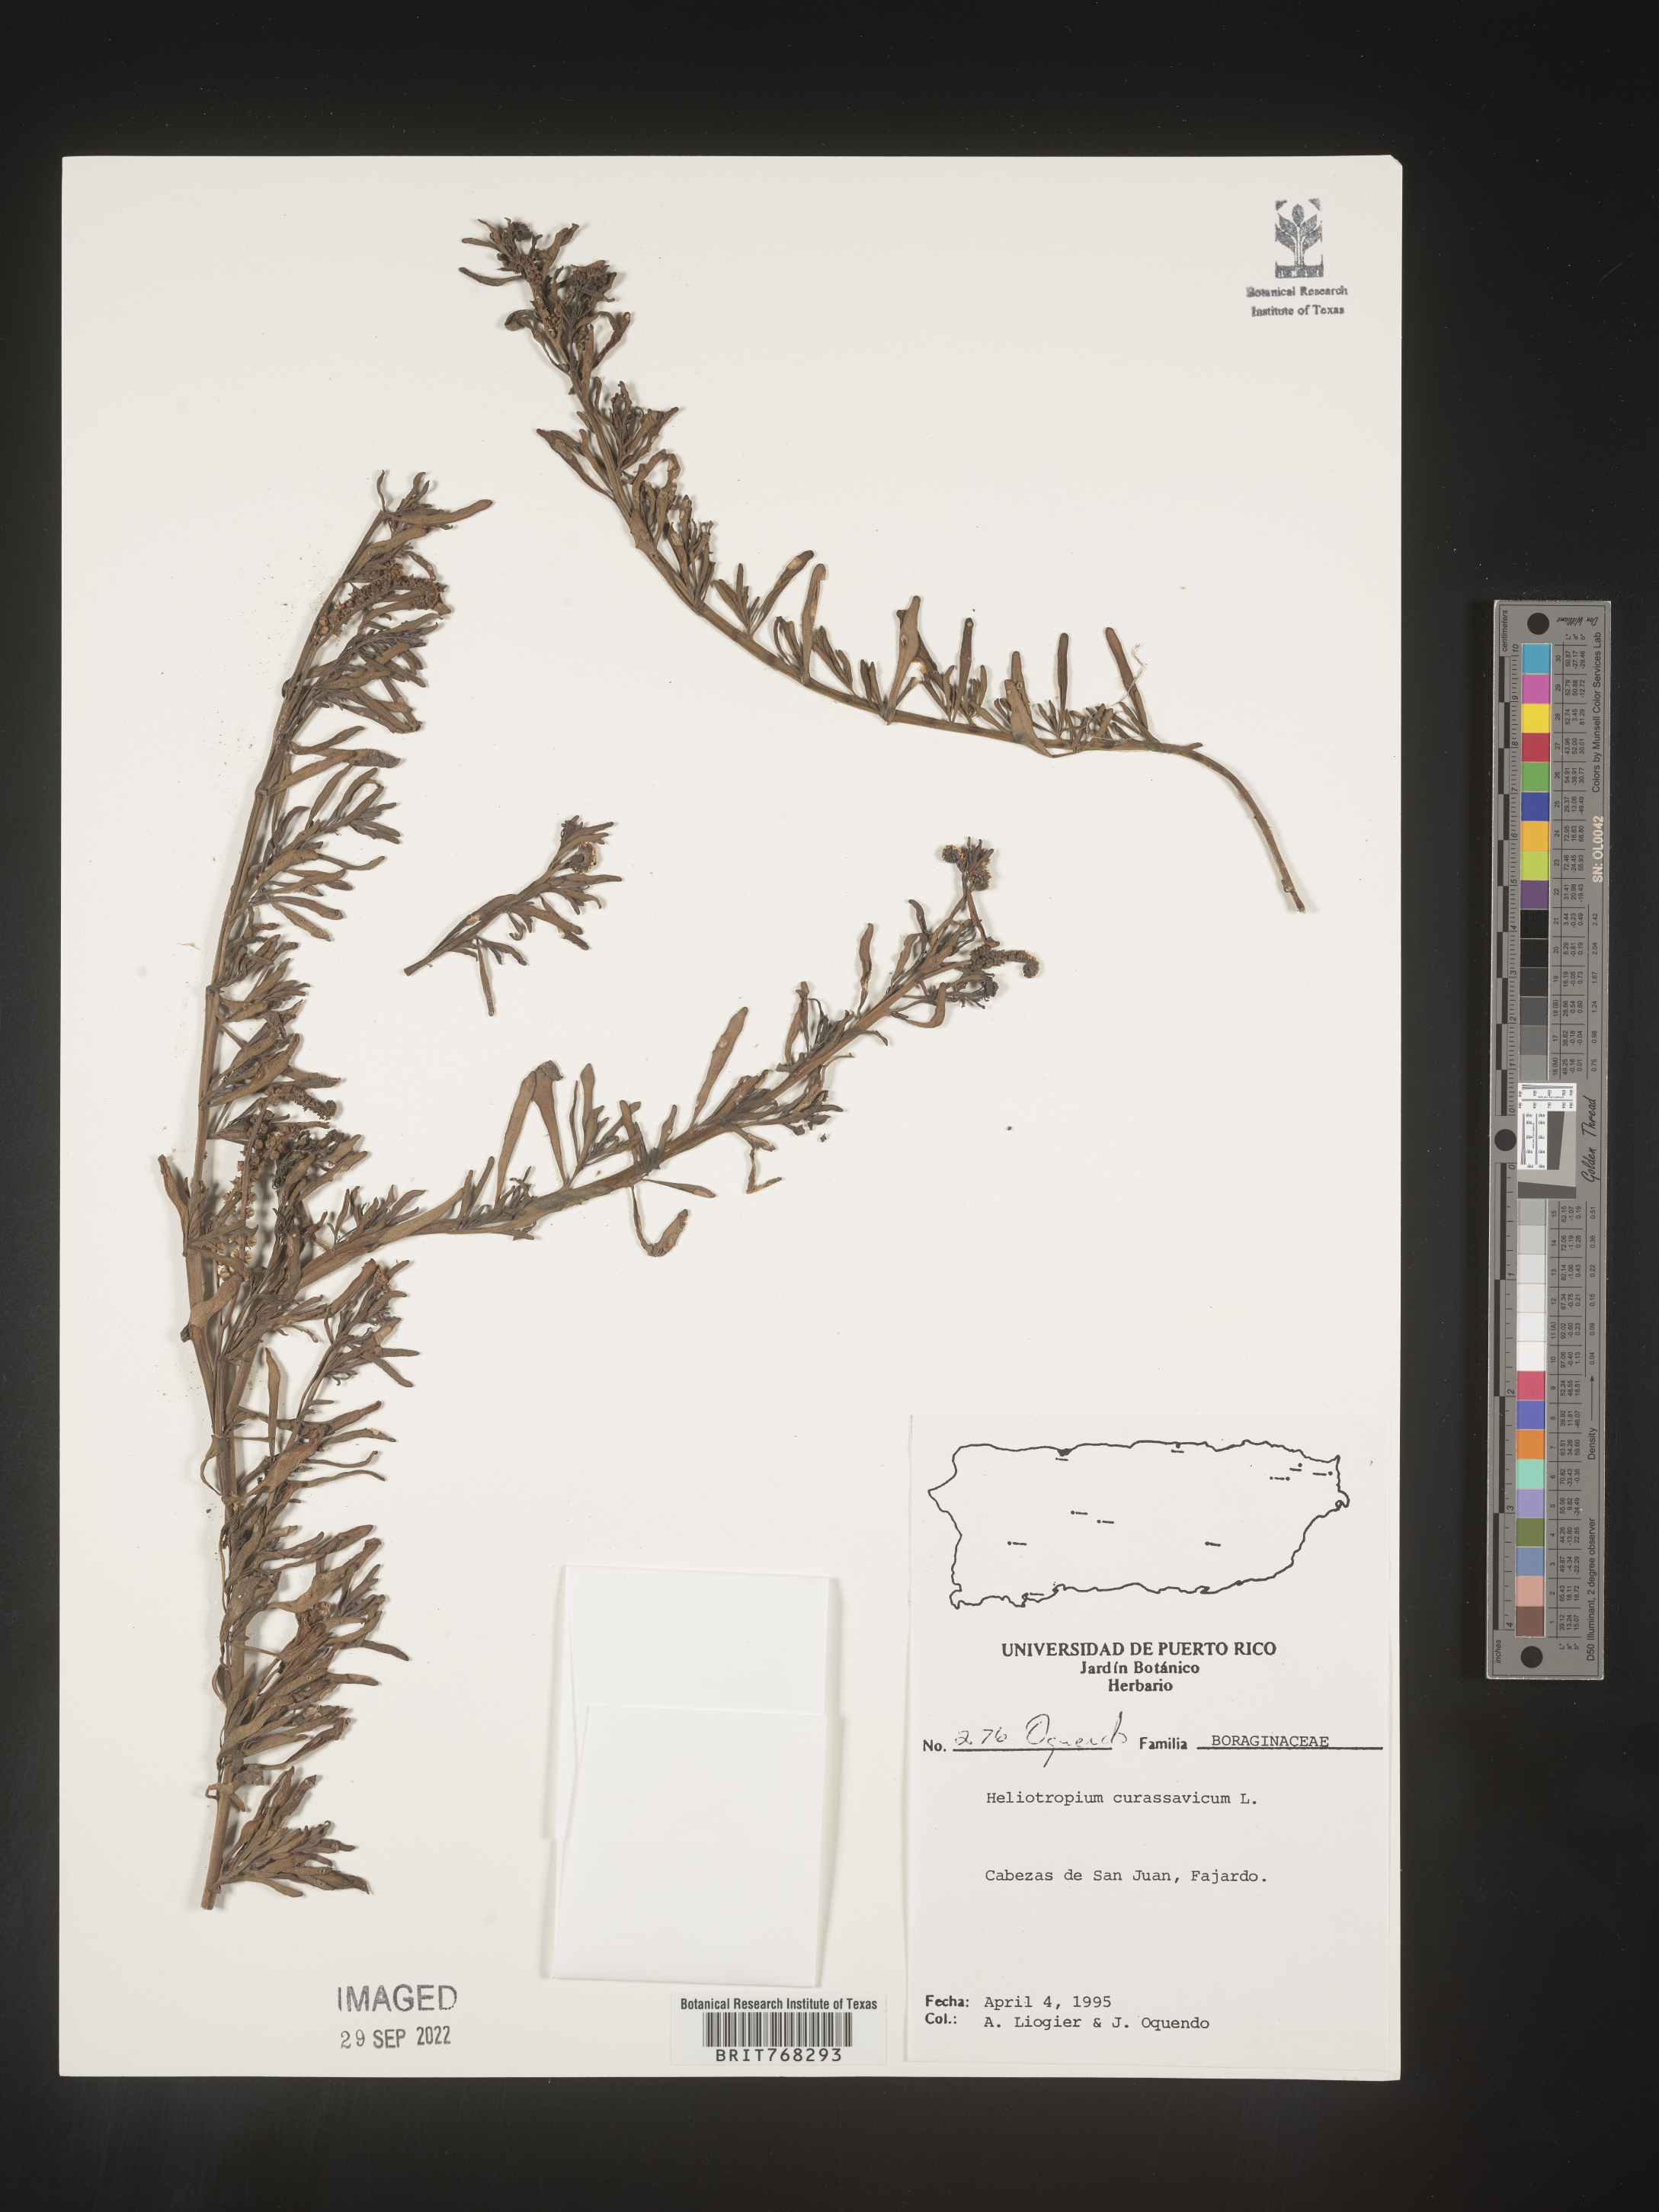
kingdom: Plantae
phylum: Tracheophyta
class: Magnoliopsida
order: Boraginales
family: Heliotropiaceae
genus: Heliotropium
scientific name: Heliotropium
